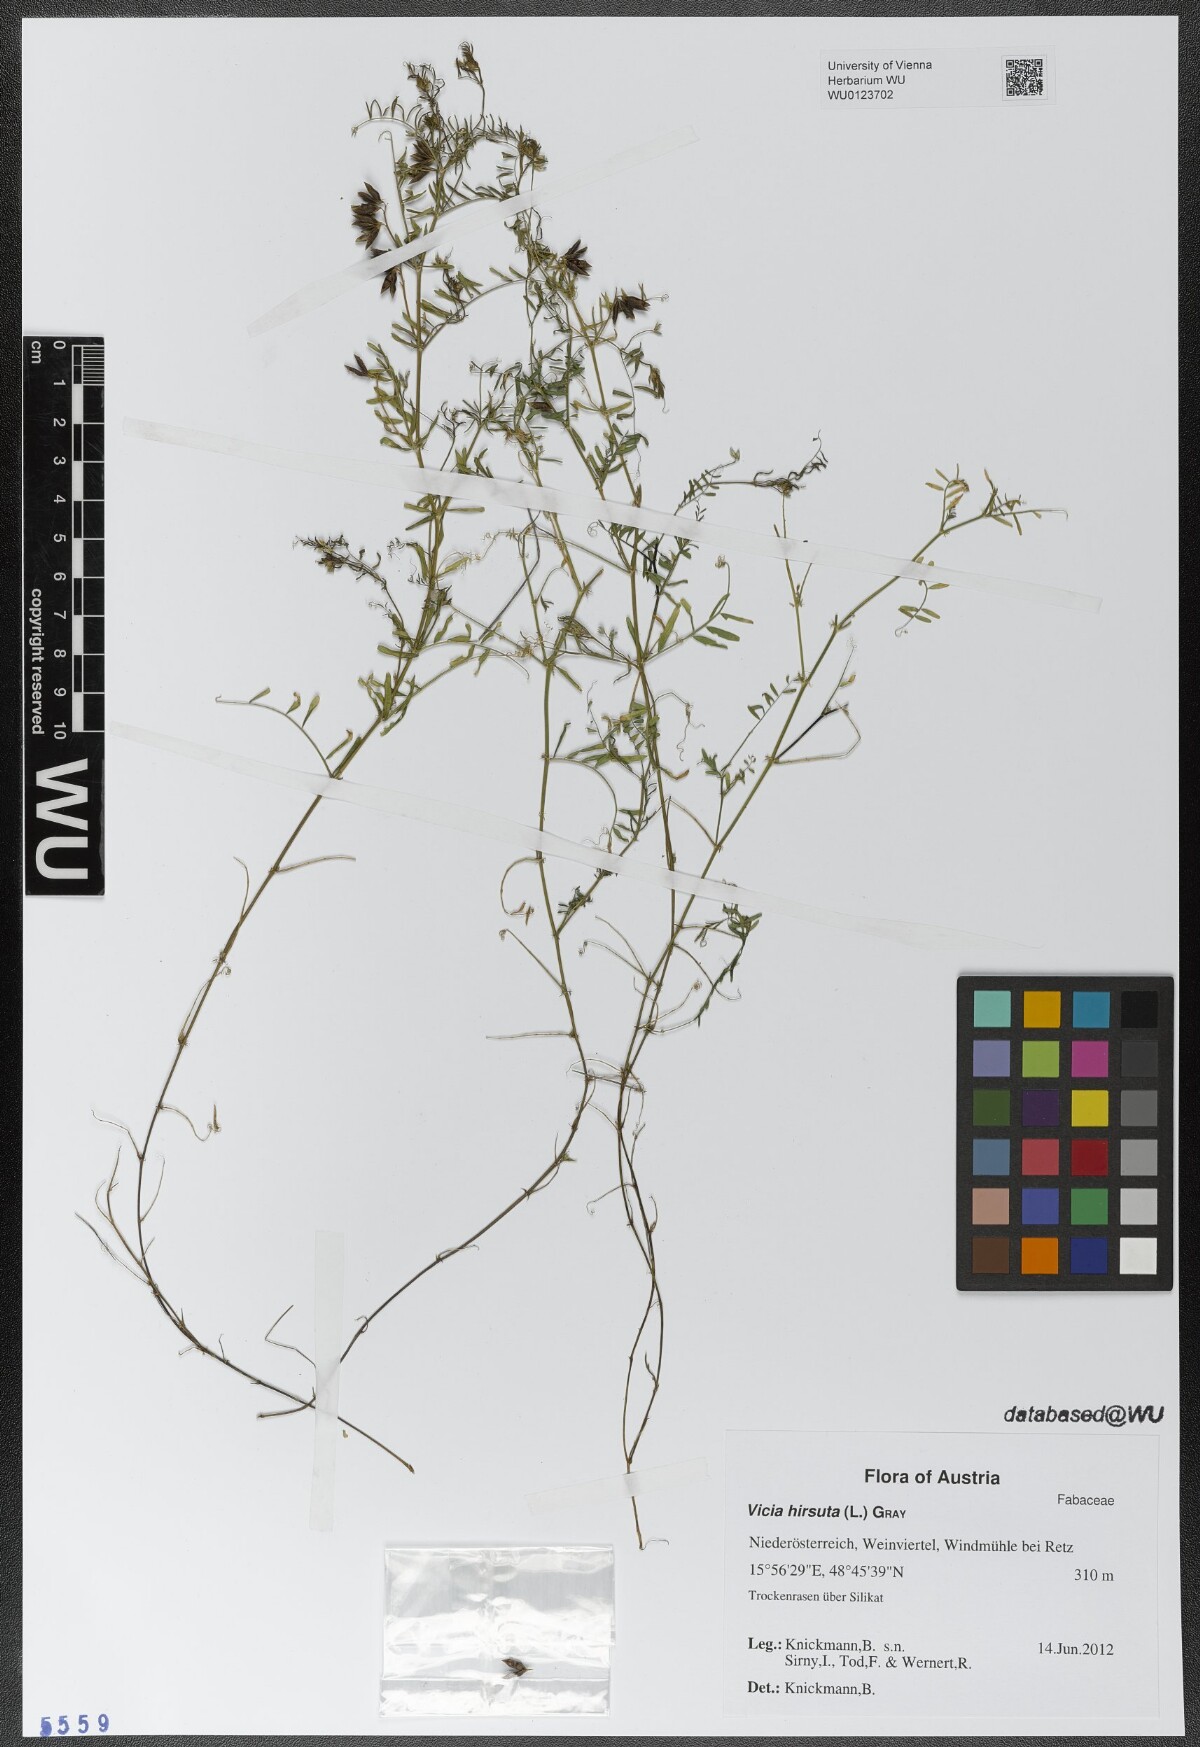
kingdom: Plantae
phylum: Tracheophyta
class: Magnoliopsida
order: Fabales
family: Fabaceae
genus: Vicia
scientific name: Vicia hirsuta
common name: Tiny vetch
